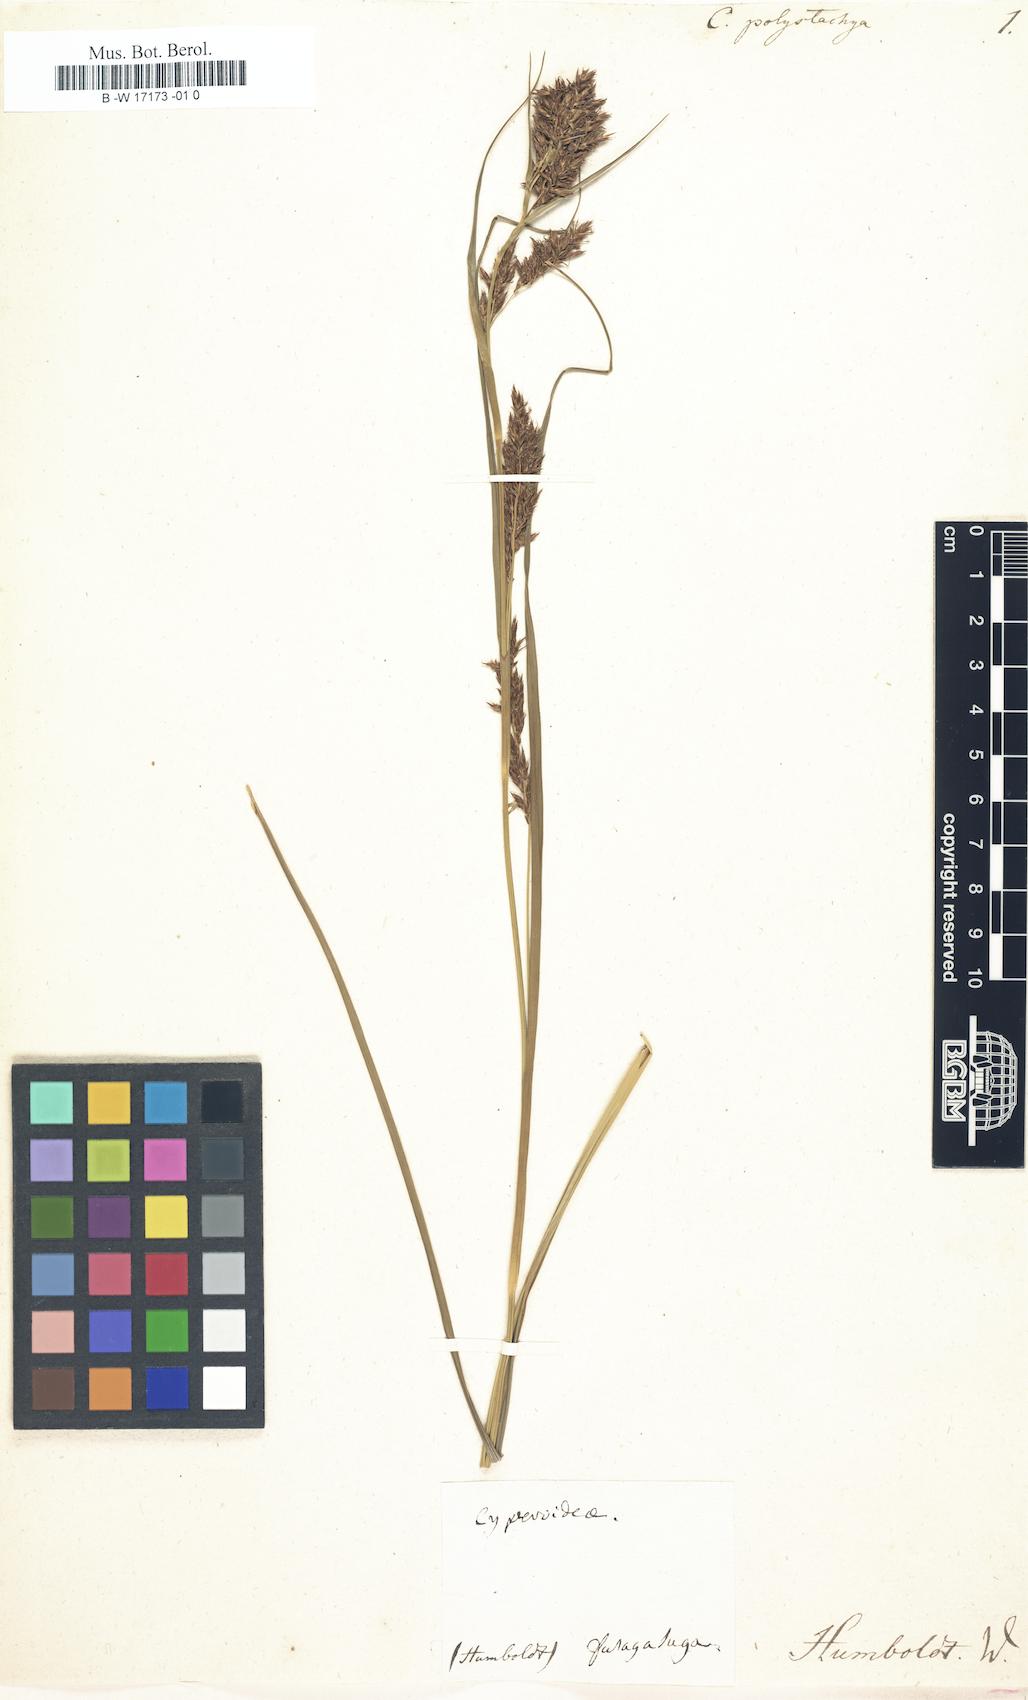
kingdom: Plantae
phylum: Tracheophyta
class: Liliopsida
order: Poales
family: Cyperaceae
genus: Carex
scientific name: Carex polystachya
